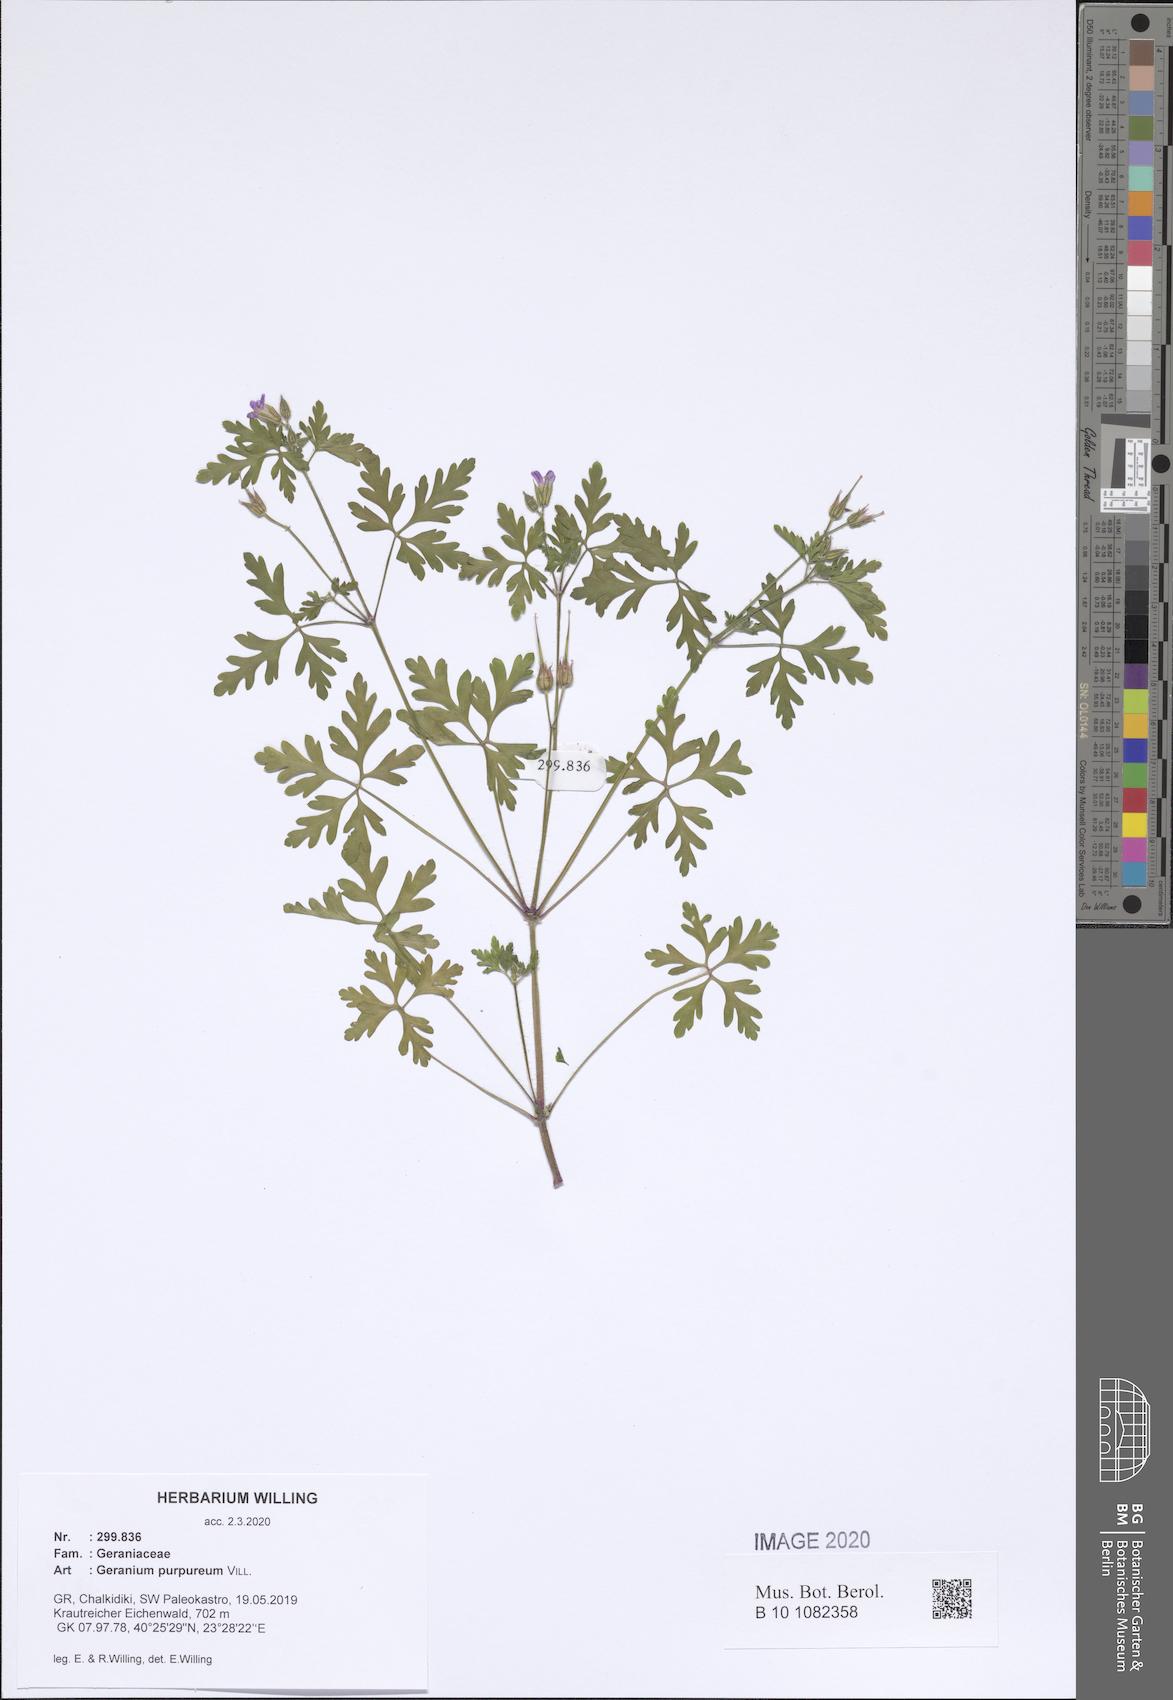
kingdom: Plantae
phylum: Tracheophyta
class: Magnoliopsida
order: Geraniales
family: Geraniaceae
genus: Geranium
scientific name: Geranium purpureum
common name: Little-robin
